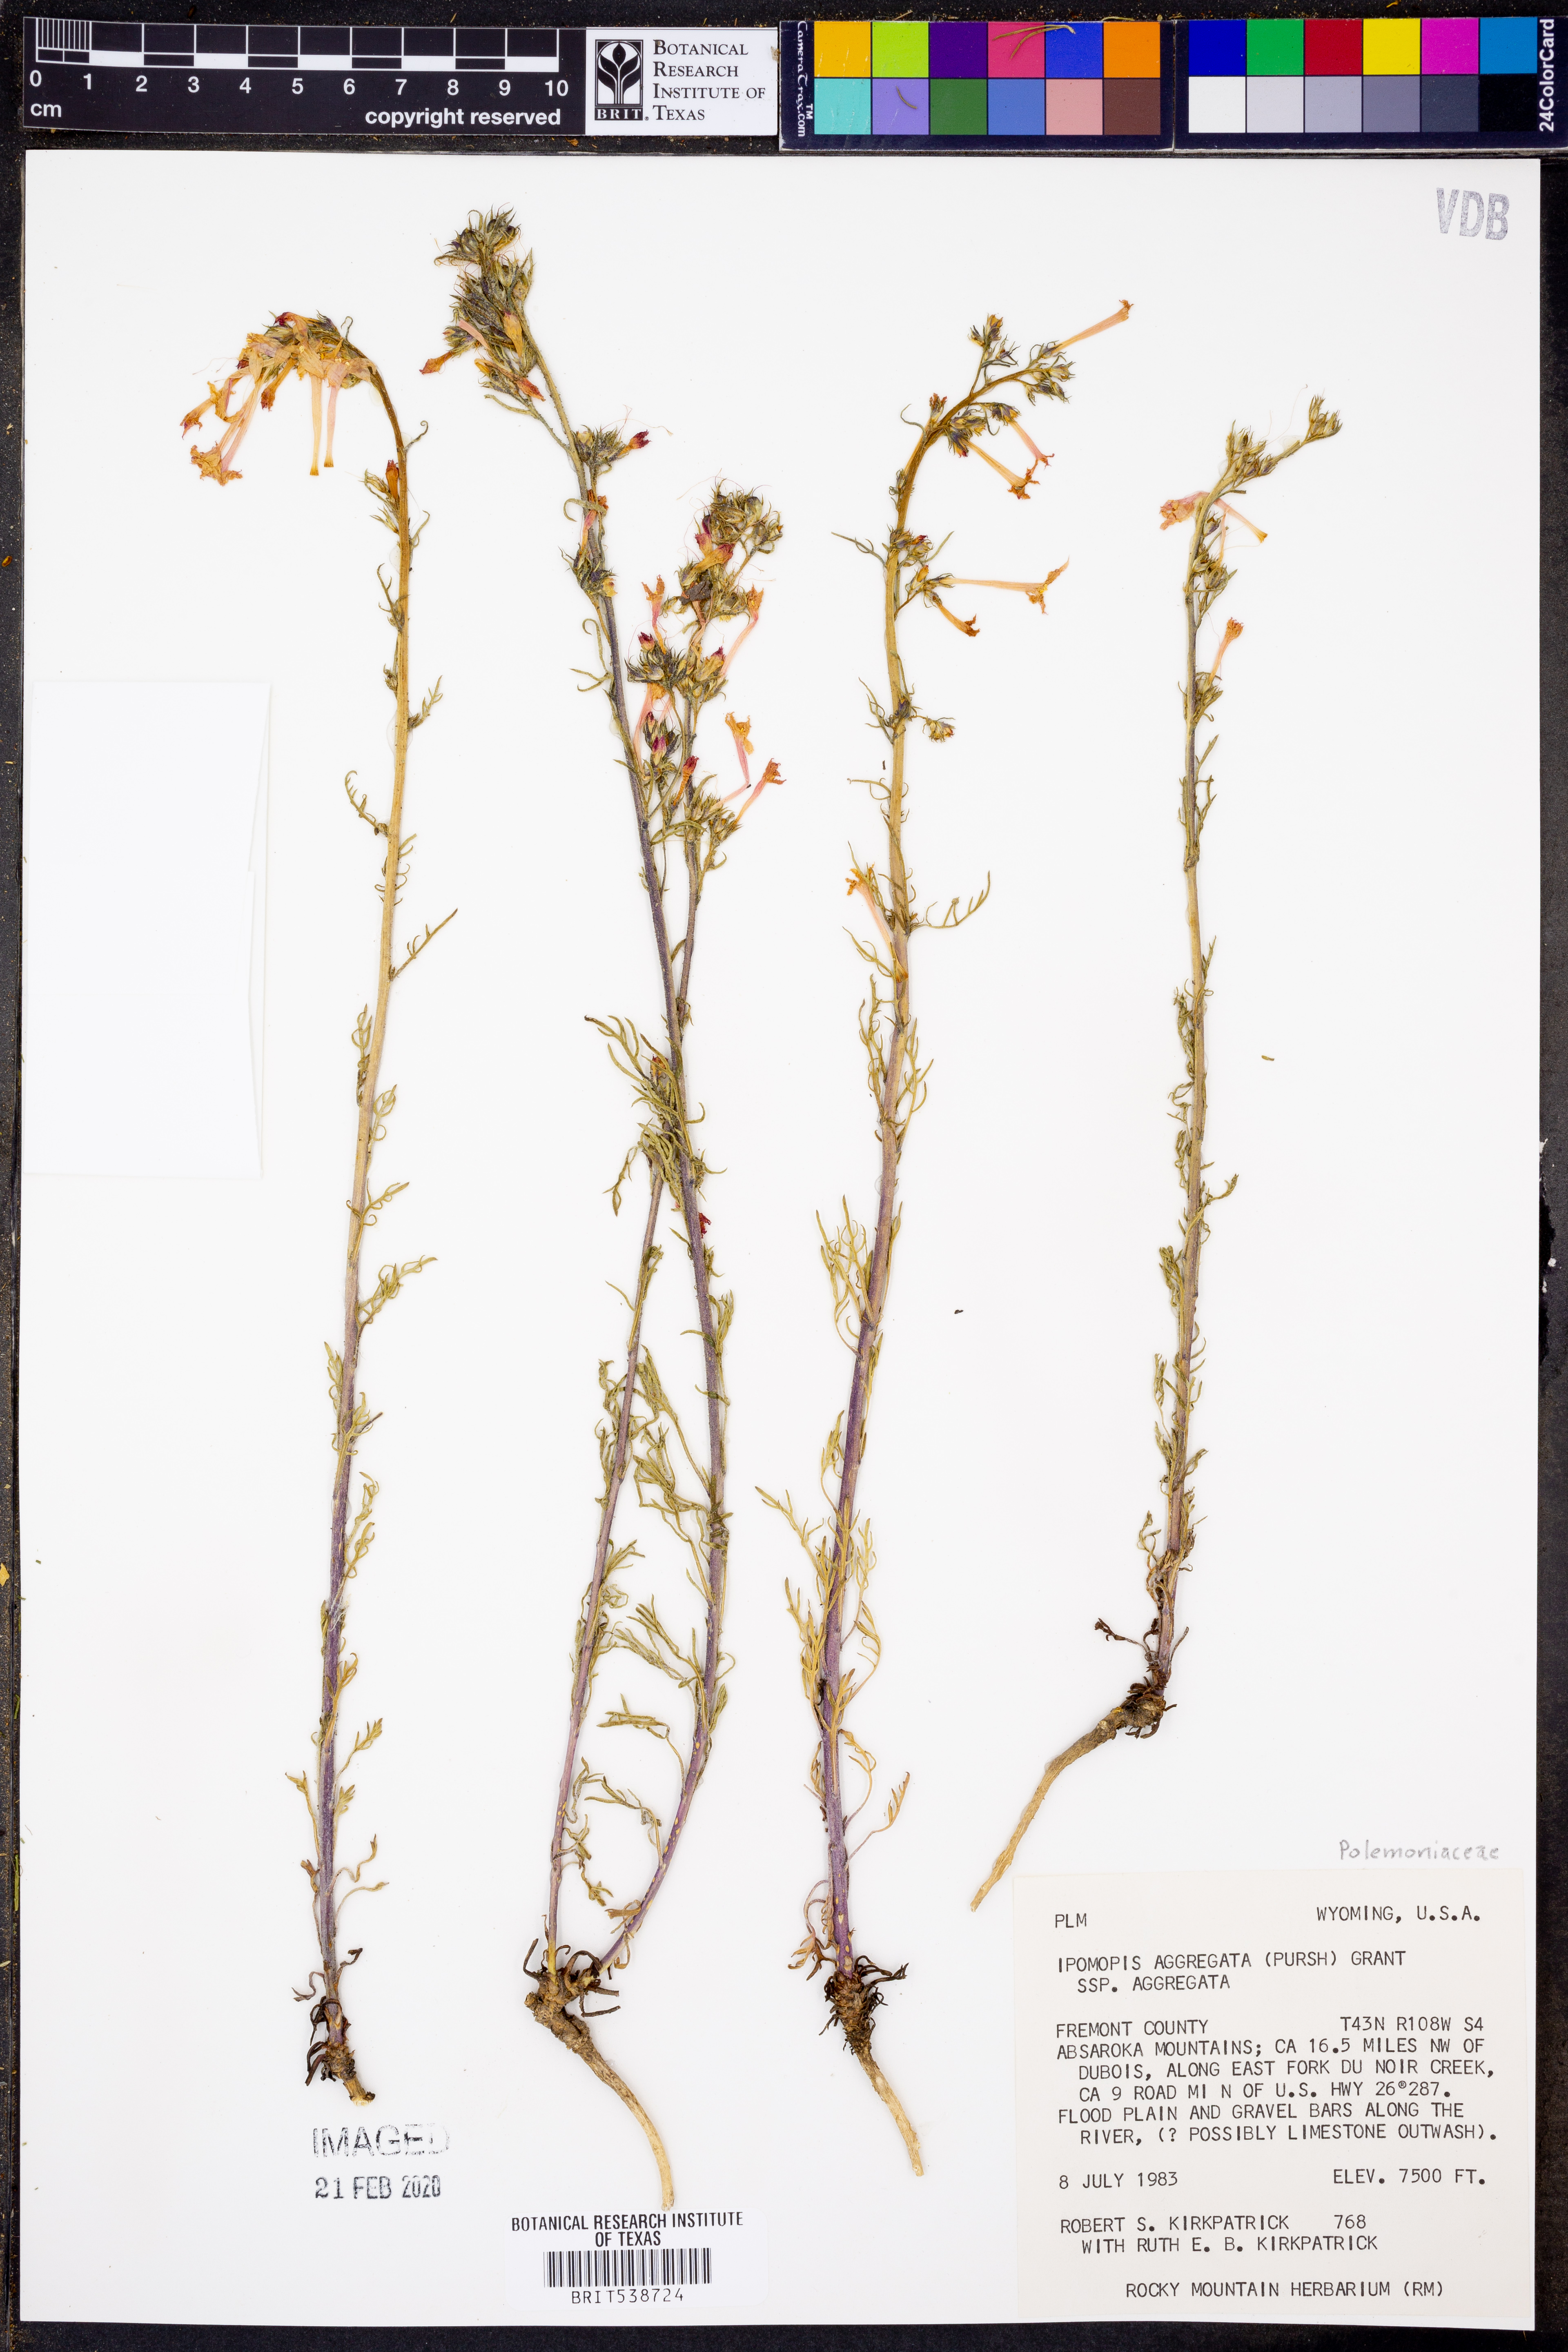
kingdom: Plantae
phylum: Tracheophyta
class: Magnoliopsida
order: Ericales
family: Polemoniaceae
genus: Ipomopsis
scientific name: Ipomopsis aggregata
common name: Scarlet gilia
